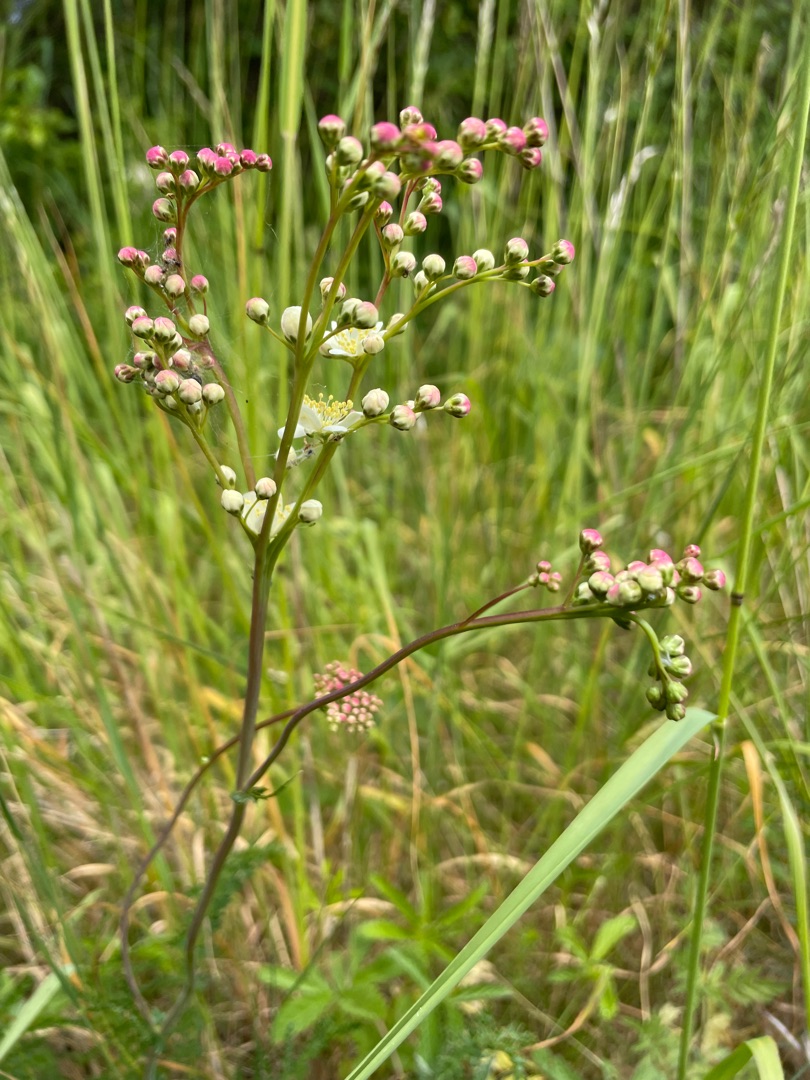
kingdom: Plantae
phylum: Tracheophyta
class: Magnoliopsida
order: Rosales
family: Rosaceae
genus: Filipendula
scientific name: Filipendula vulgaris
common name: Knoldet mjødurt
